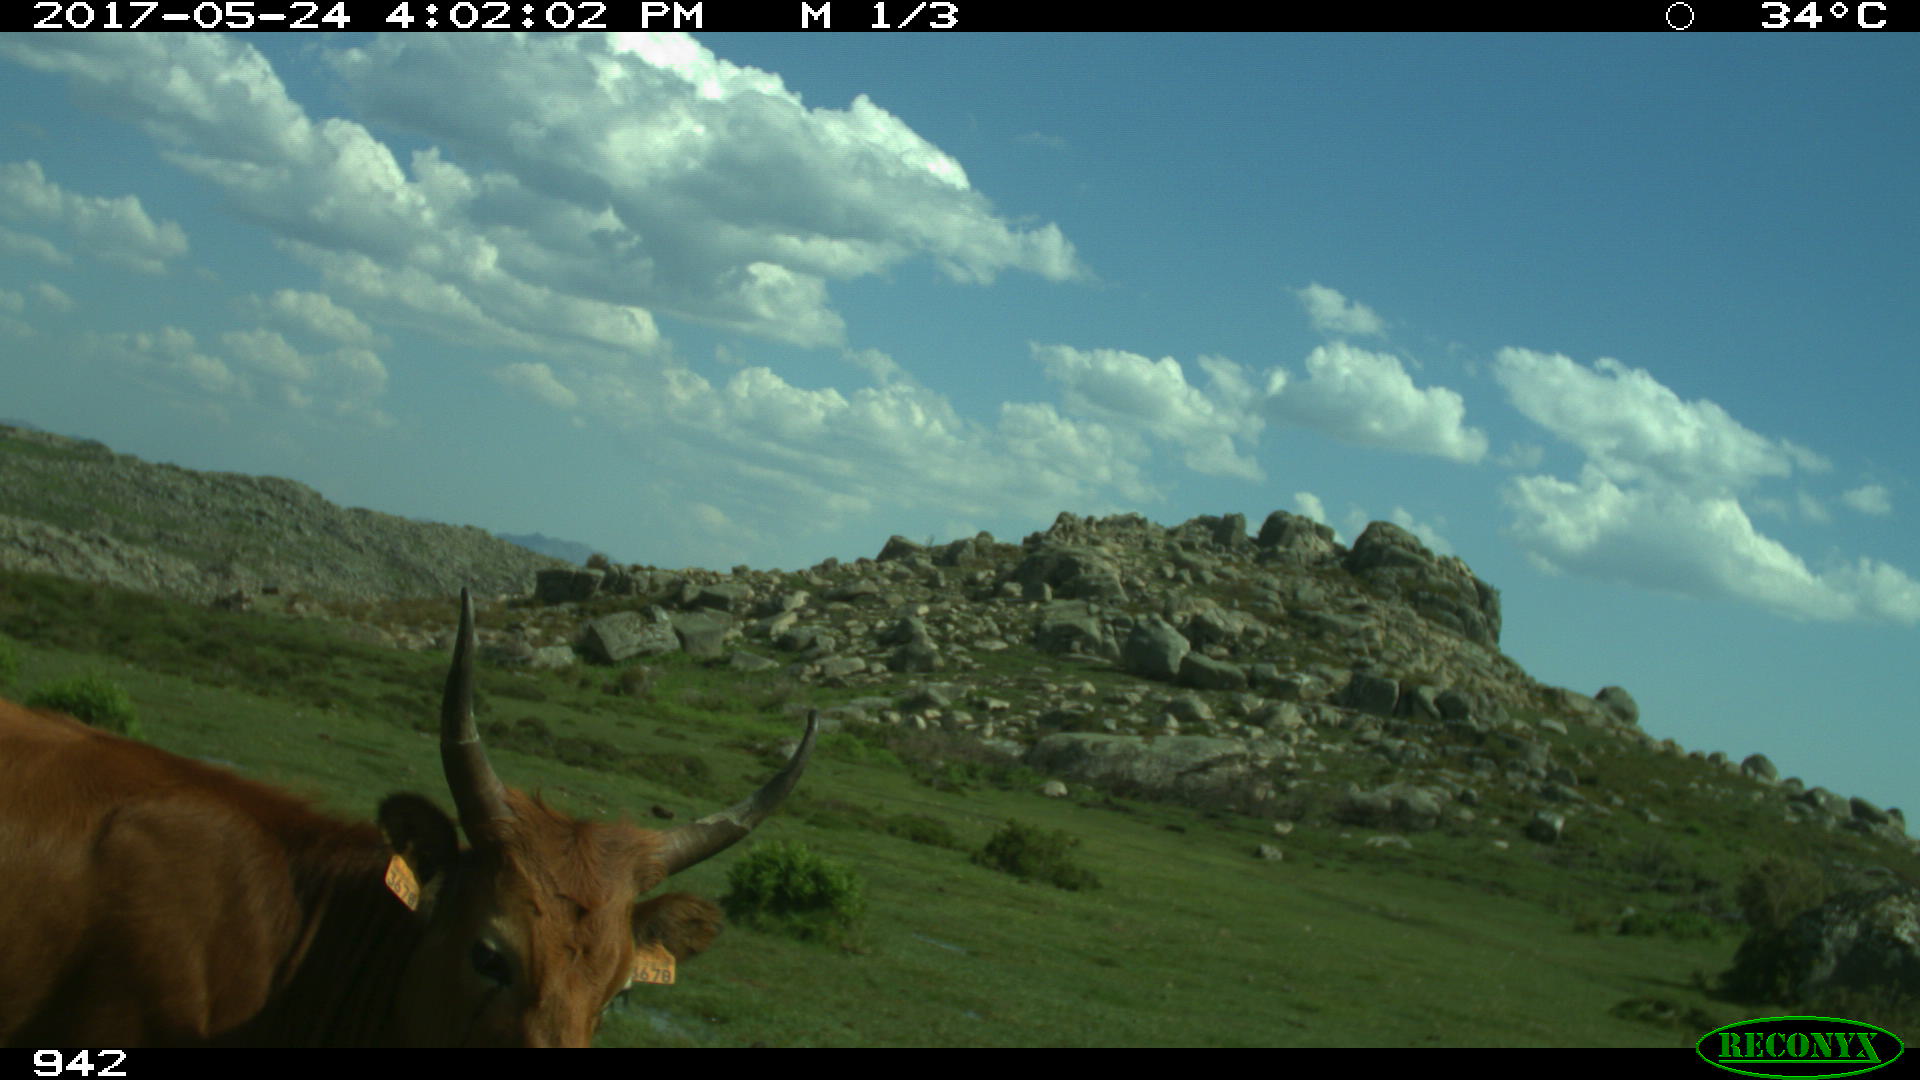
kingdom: Animalia
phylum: Chordata
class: Mammalia
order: Artiodactyla
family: Bovidae
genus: Bos
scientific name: Bos taurus
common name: Domesticated cattle
